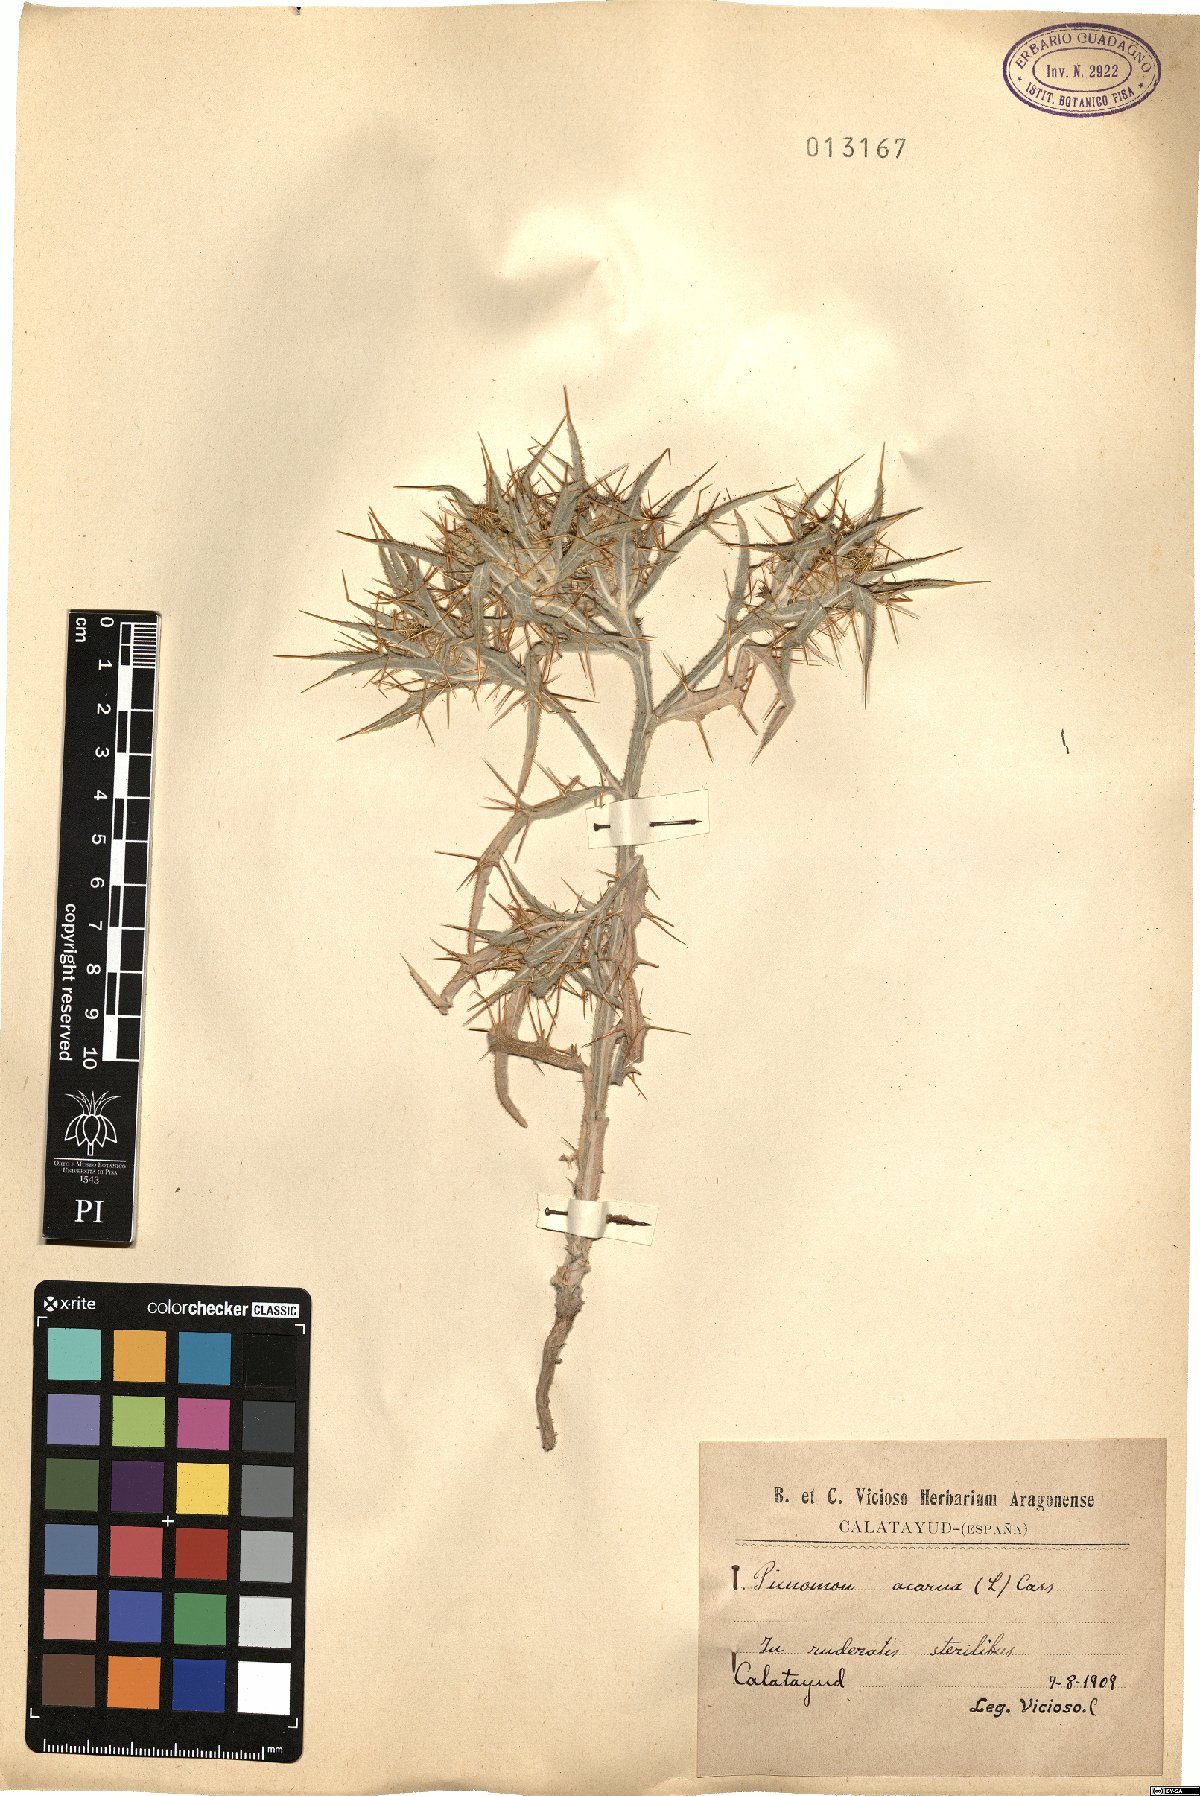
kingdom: Plantae
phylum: Tracheophyta
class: Magnoliopsida
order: Asterales
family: Asteraceae
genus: Picnomon
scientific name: Picnomon acarna
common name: Soldier thistle
